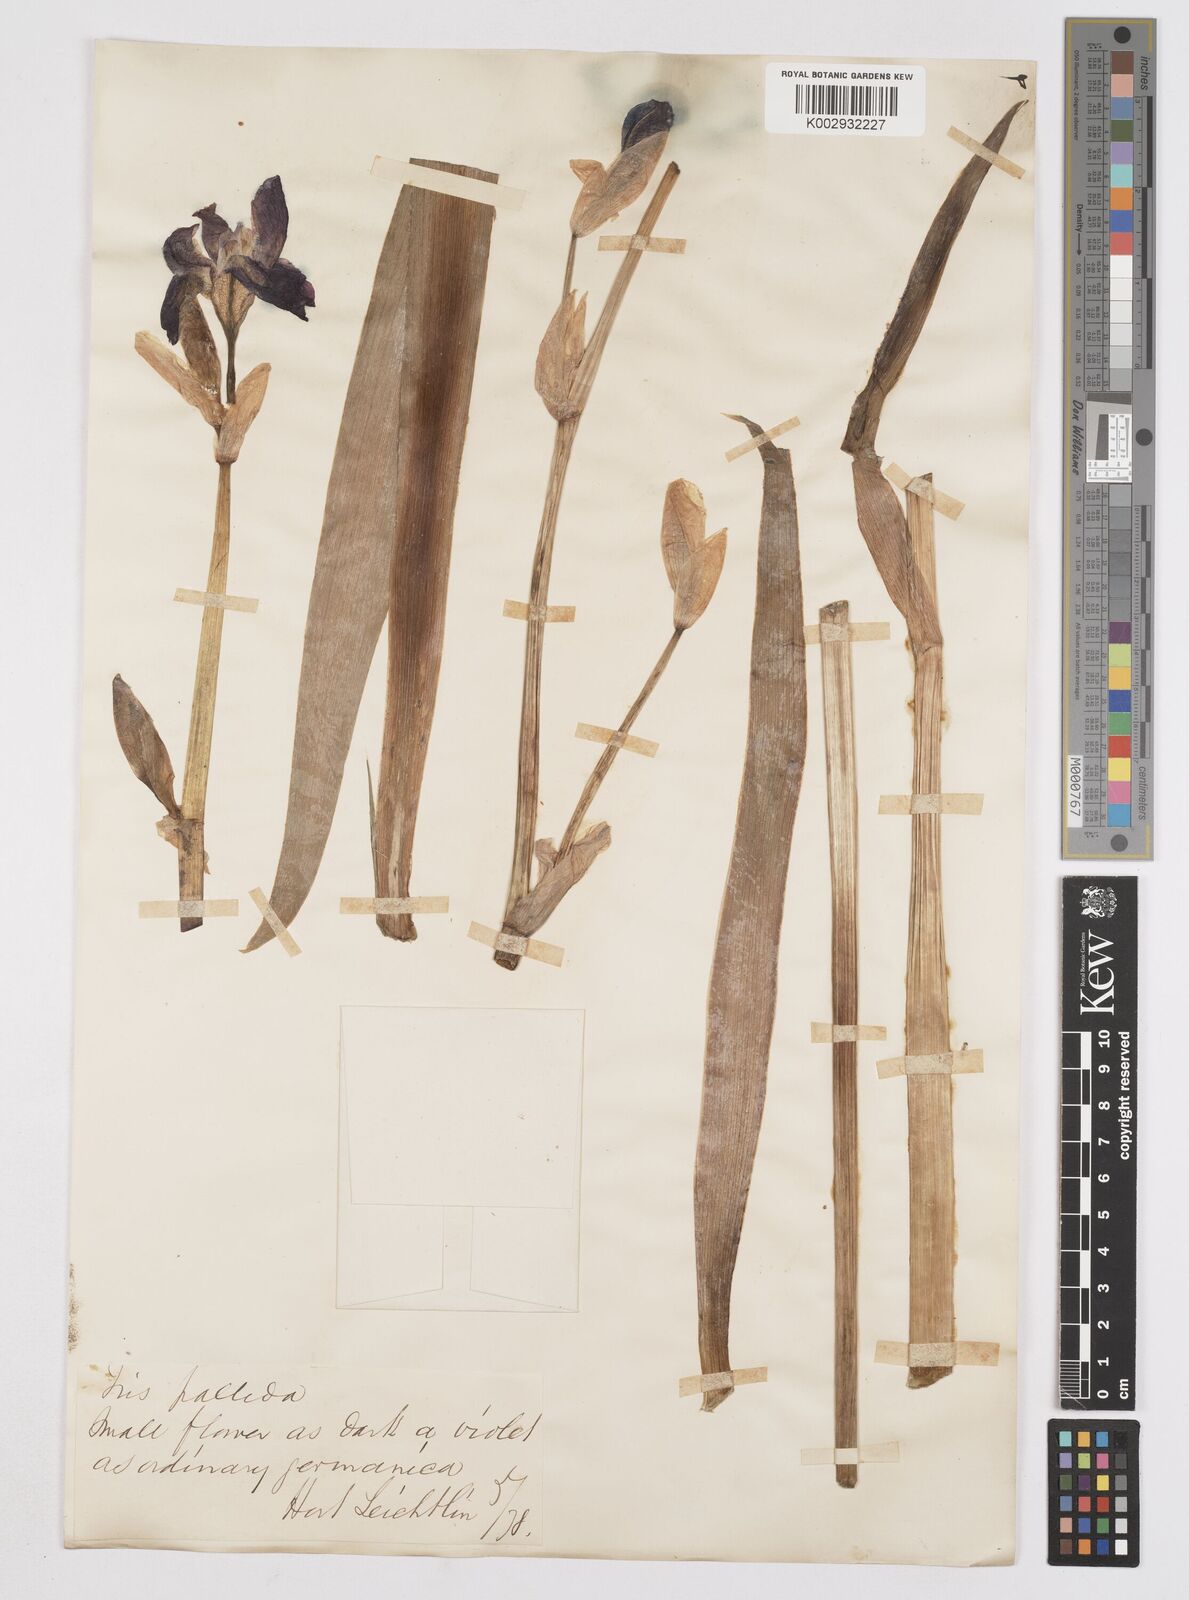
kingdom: Plantae
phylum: Tracheophyta
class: Liliopsida
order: Asparagales
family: Iridaceae
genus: Iris
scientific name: Iris pallida
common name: Sweet iris
